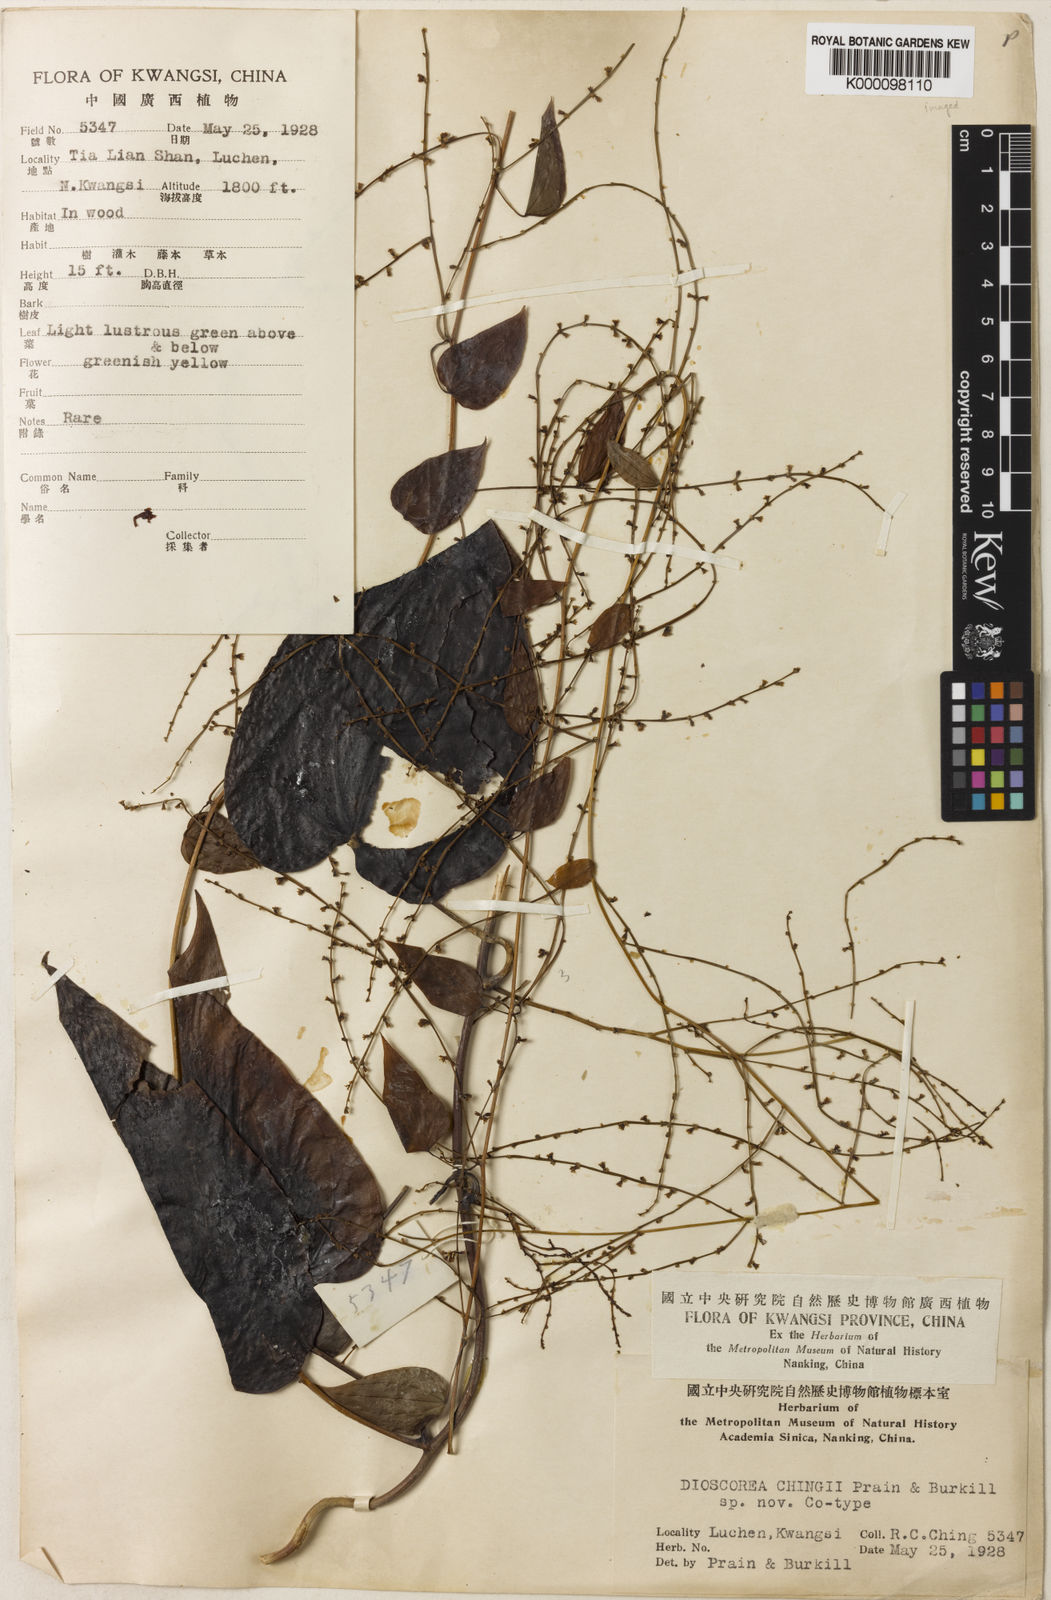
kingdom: Plantae
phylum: Tracheophyta
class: Liliopsida
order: Dioscoreales
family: Dioscoreaceae
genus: Dioscorea
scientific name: Dioscorea chingii
